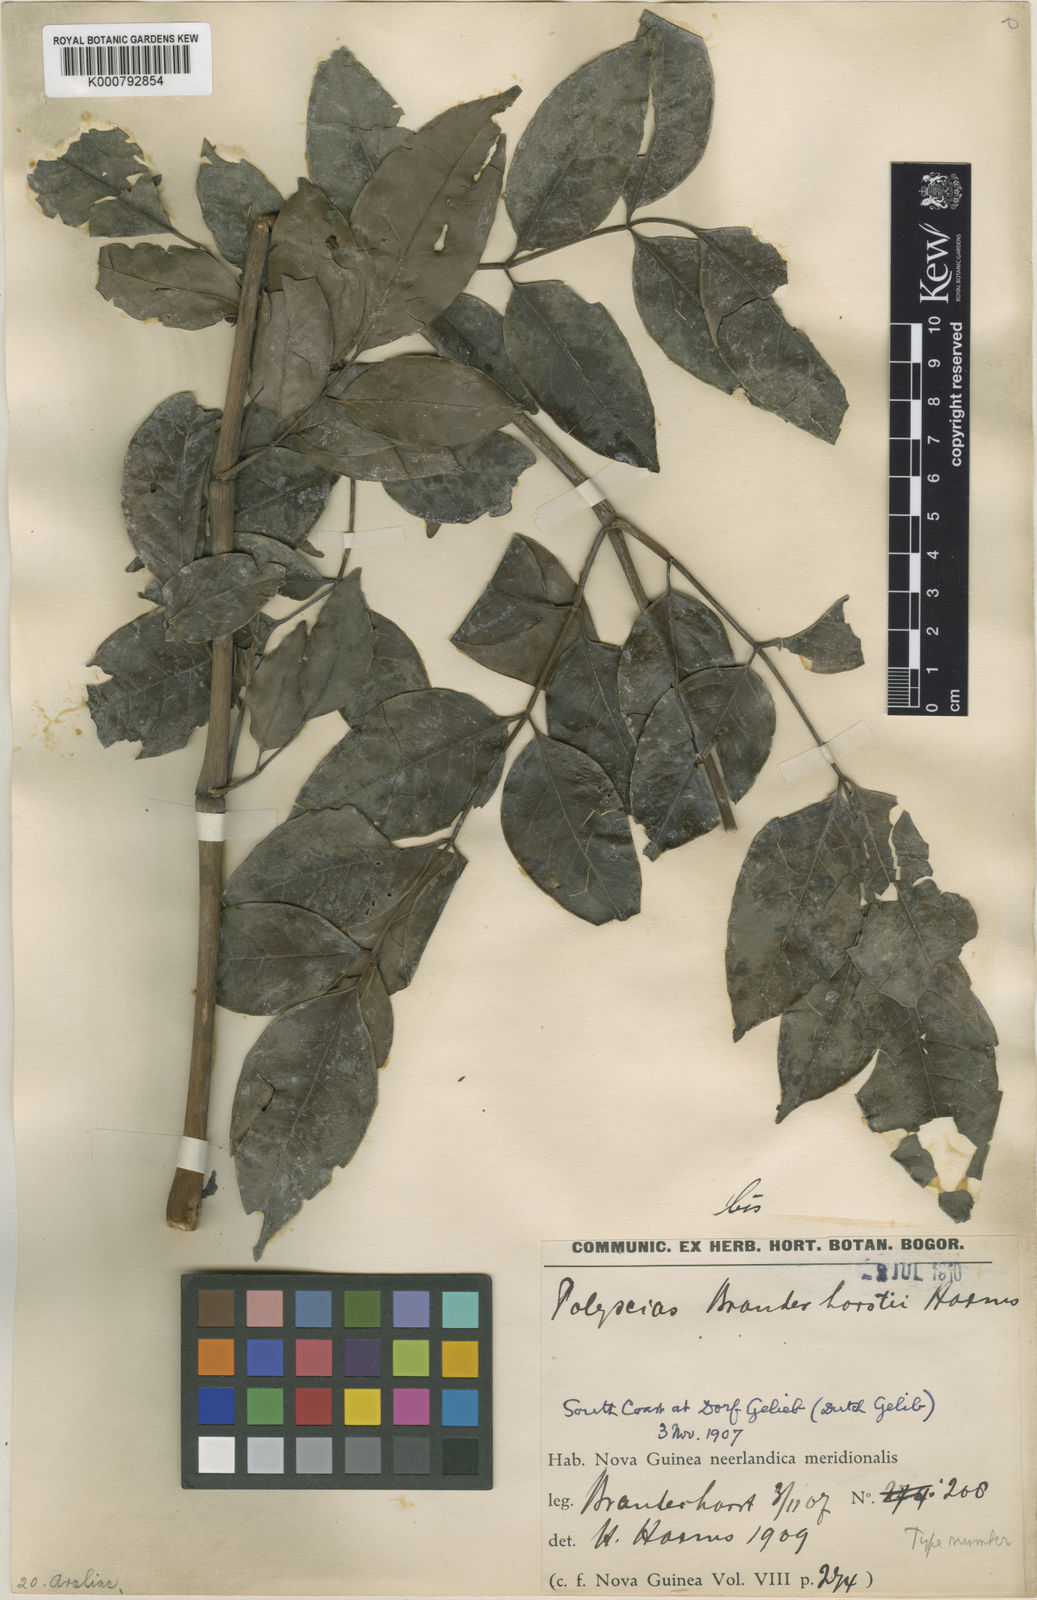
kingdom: Plantae
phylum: Tracheophyta
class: Magnoliopsida
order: Apiales
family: Araliaceae
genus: Polyscias
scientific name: Polyscias elegans
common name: Mowbulan whitewood
